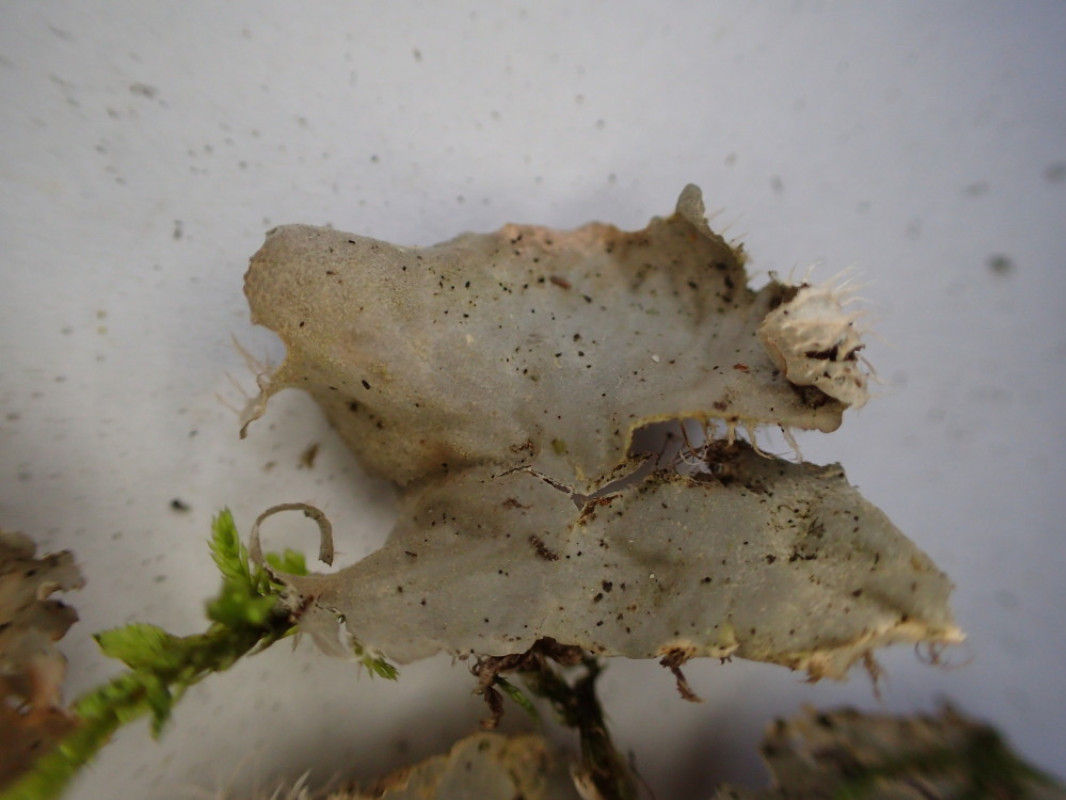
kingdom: Fungi
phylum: Ascomycota
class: Lecanoromycetes
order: Peltigerales
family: Peltigeraceae
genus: Peltigera
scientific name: Peltigera membranacea
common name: tynd skjoldlav
